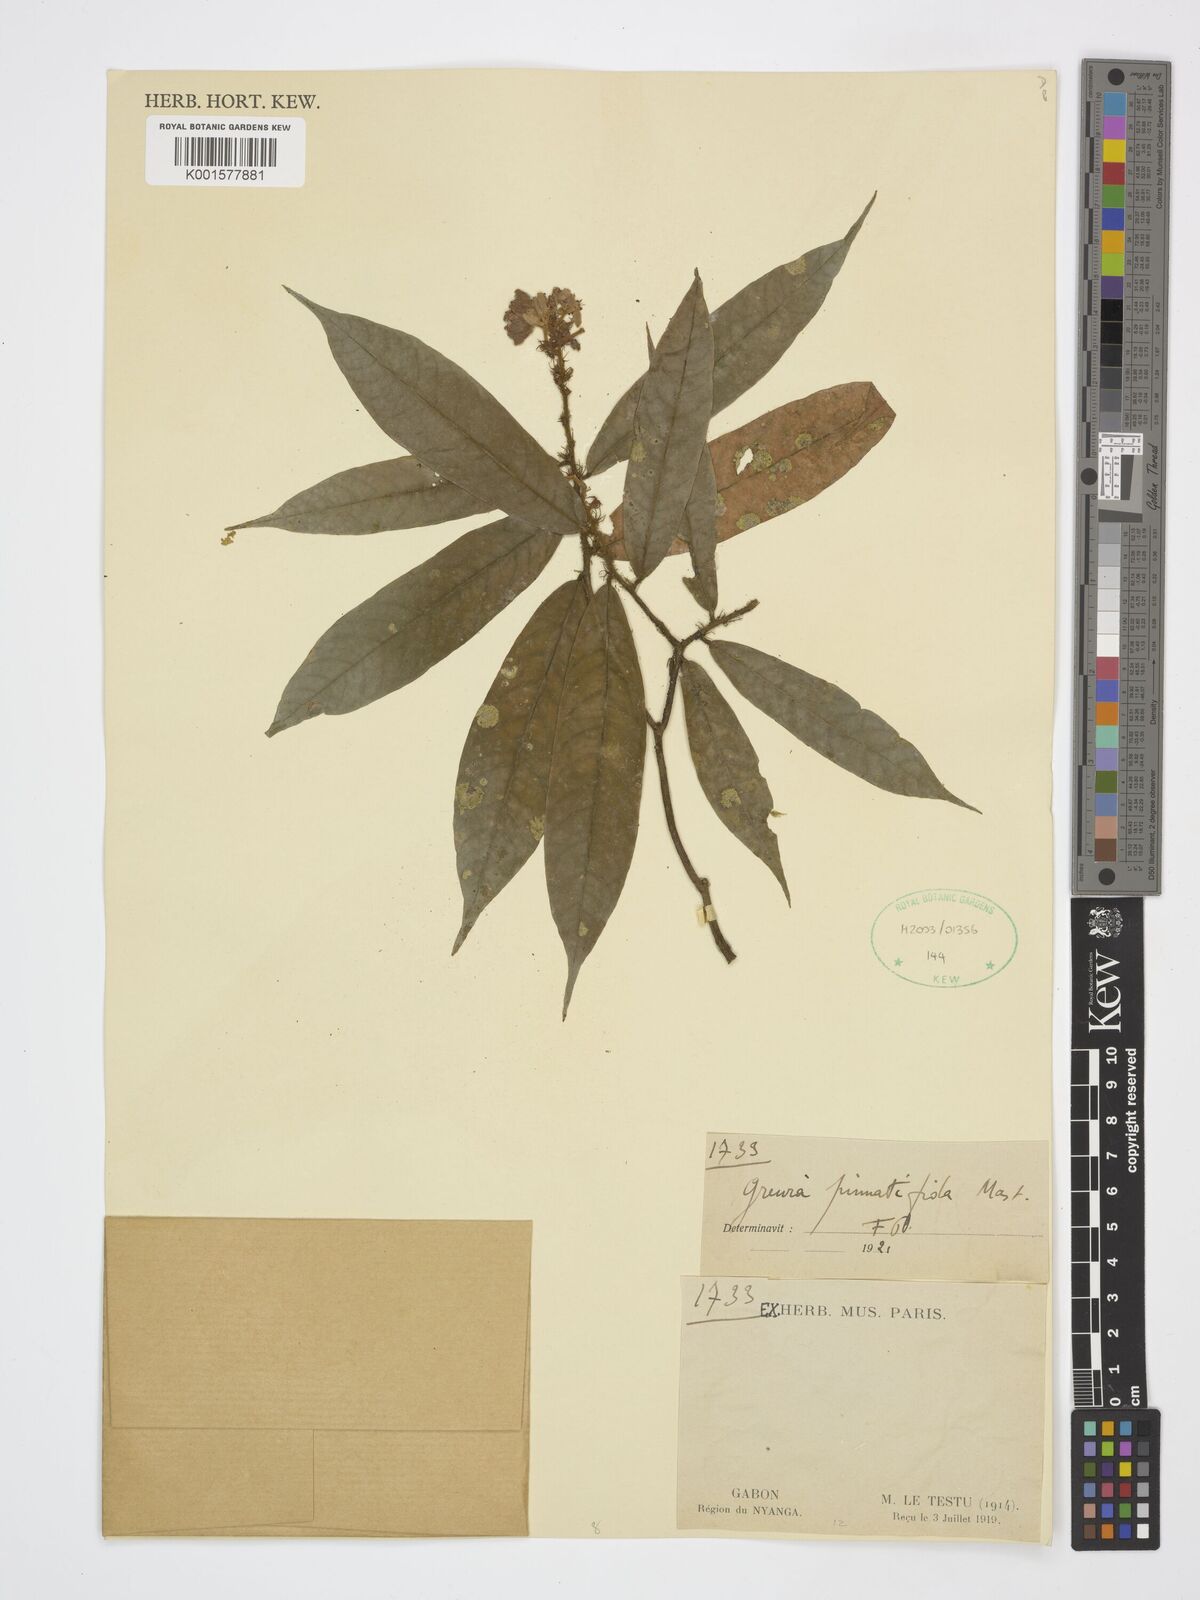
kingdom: Plantae
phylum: Tracheophyta
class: Magnoliopsida
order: Malvales
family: Malvaceae
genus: Microcos
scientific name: Microcos pinnatifida
